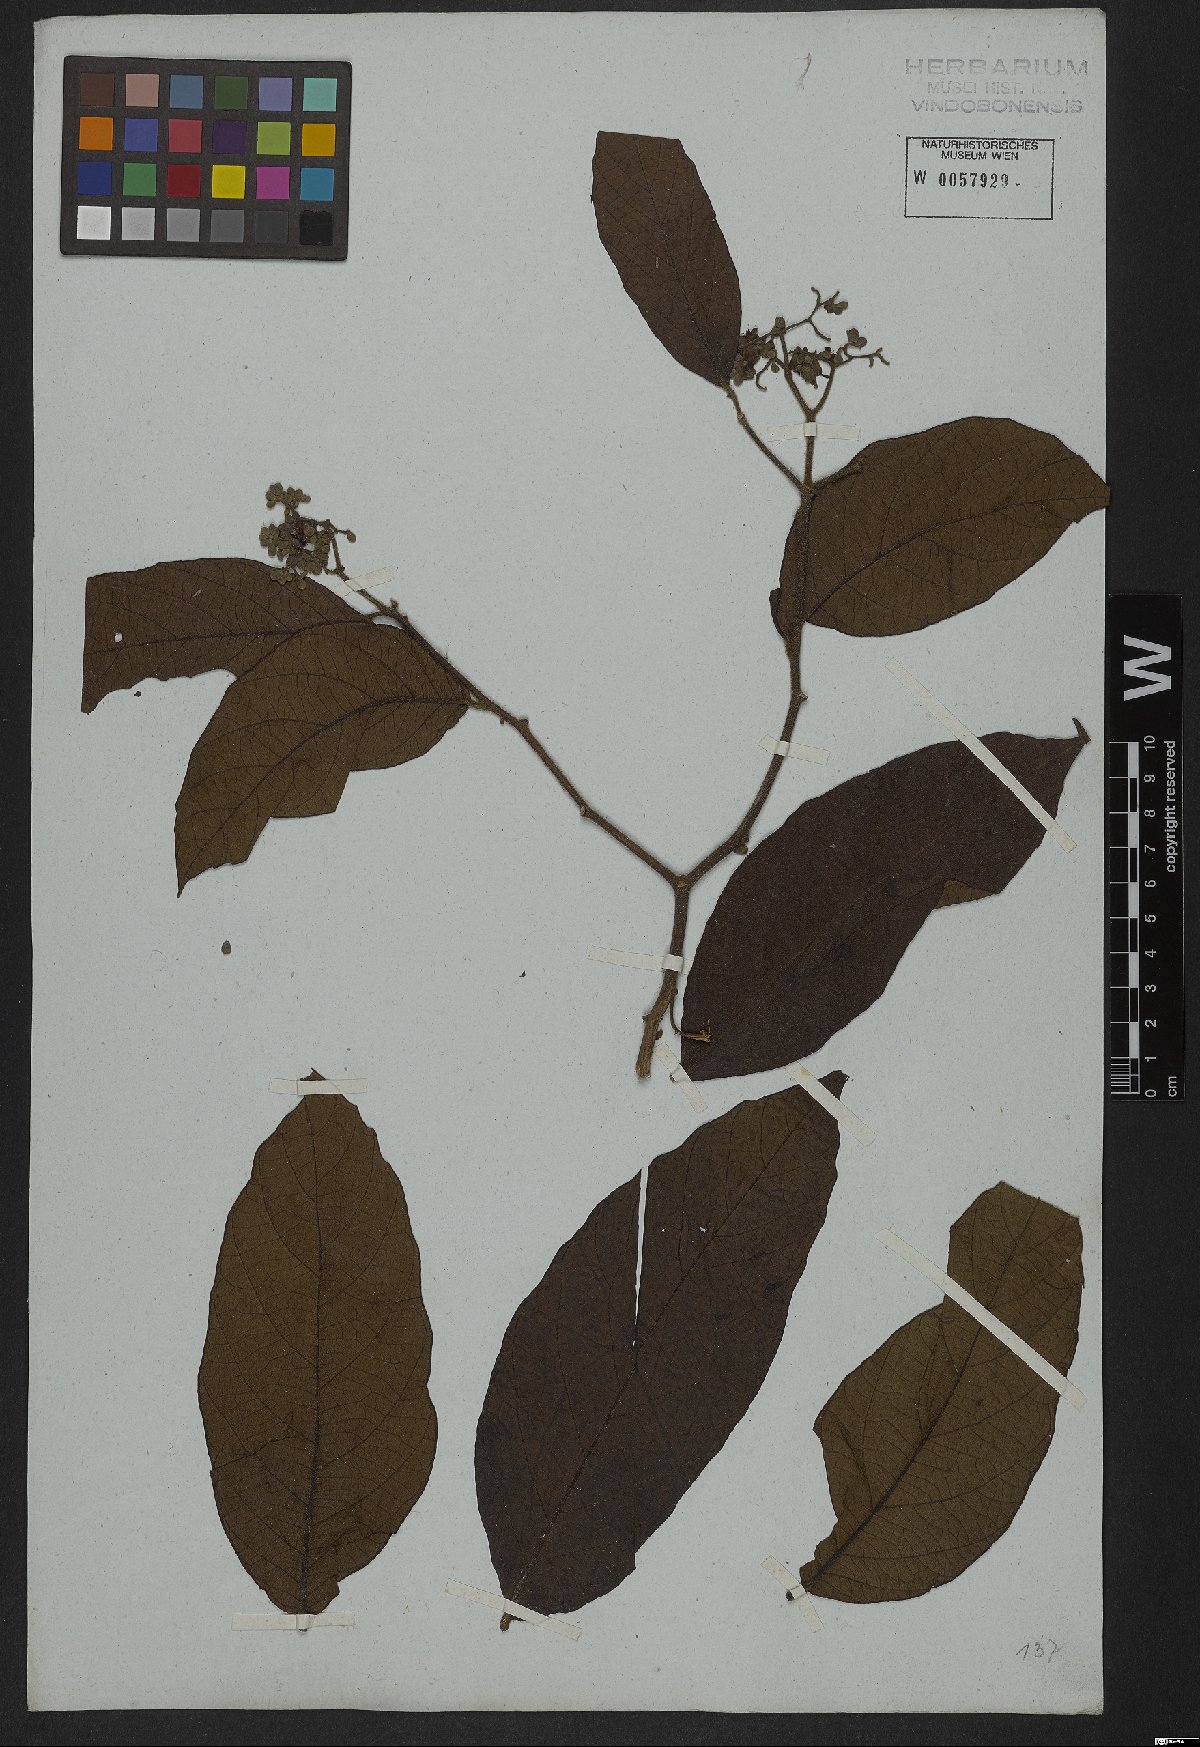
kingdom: Plantae
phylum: Tracheophyta
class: Magnoliopsida
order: Boraginales
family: Cordiaceae
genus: Cordia
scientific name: Cordia
